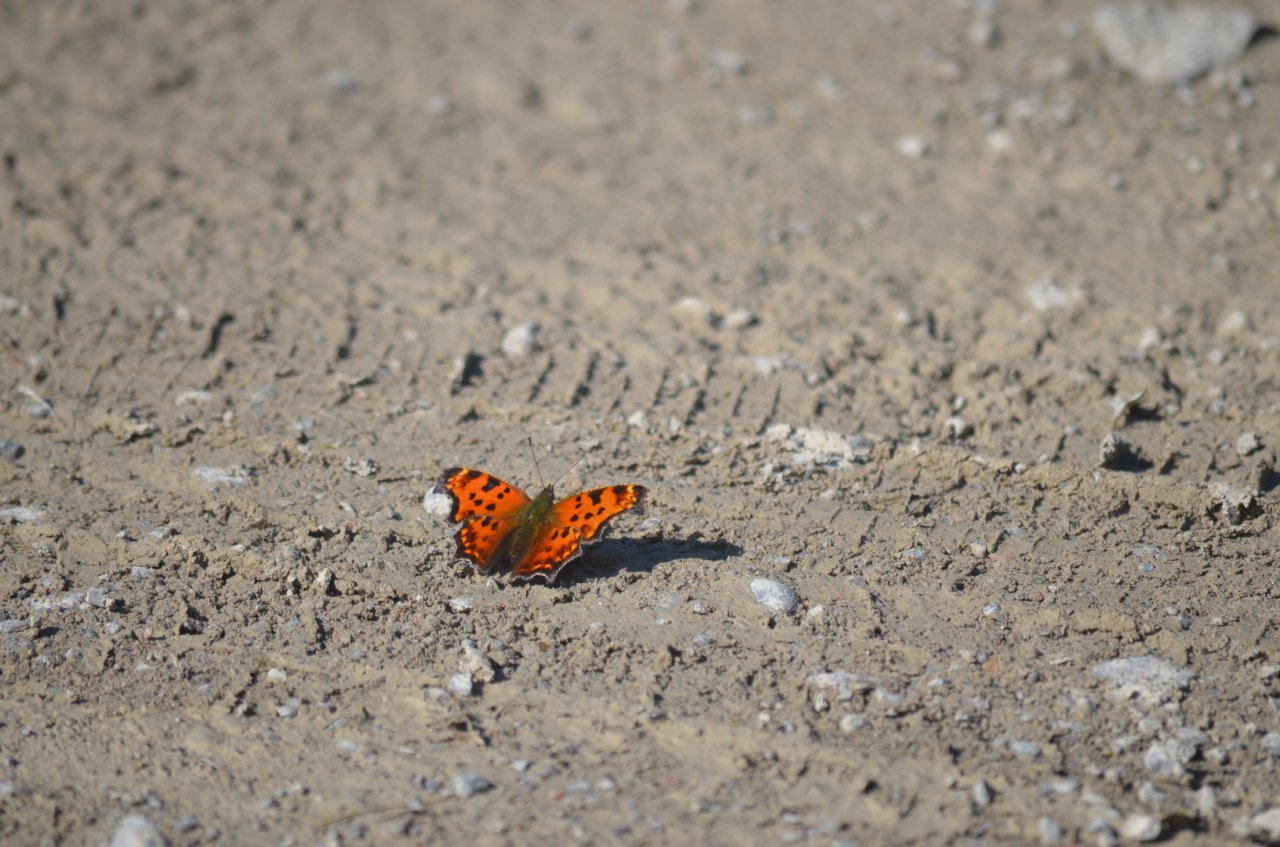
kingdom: Animalia
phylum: Arthropoda
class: Insecta
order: Lepidoptera
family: Nymphalidae
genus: Polygonia
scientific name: Polygonia comma
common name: Eastern Comma
